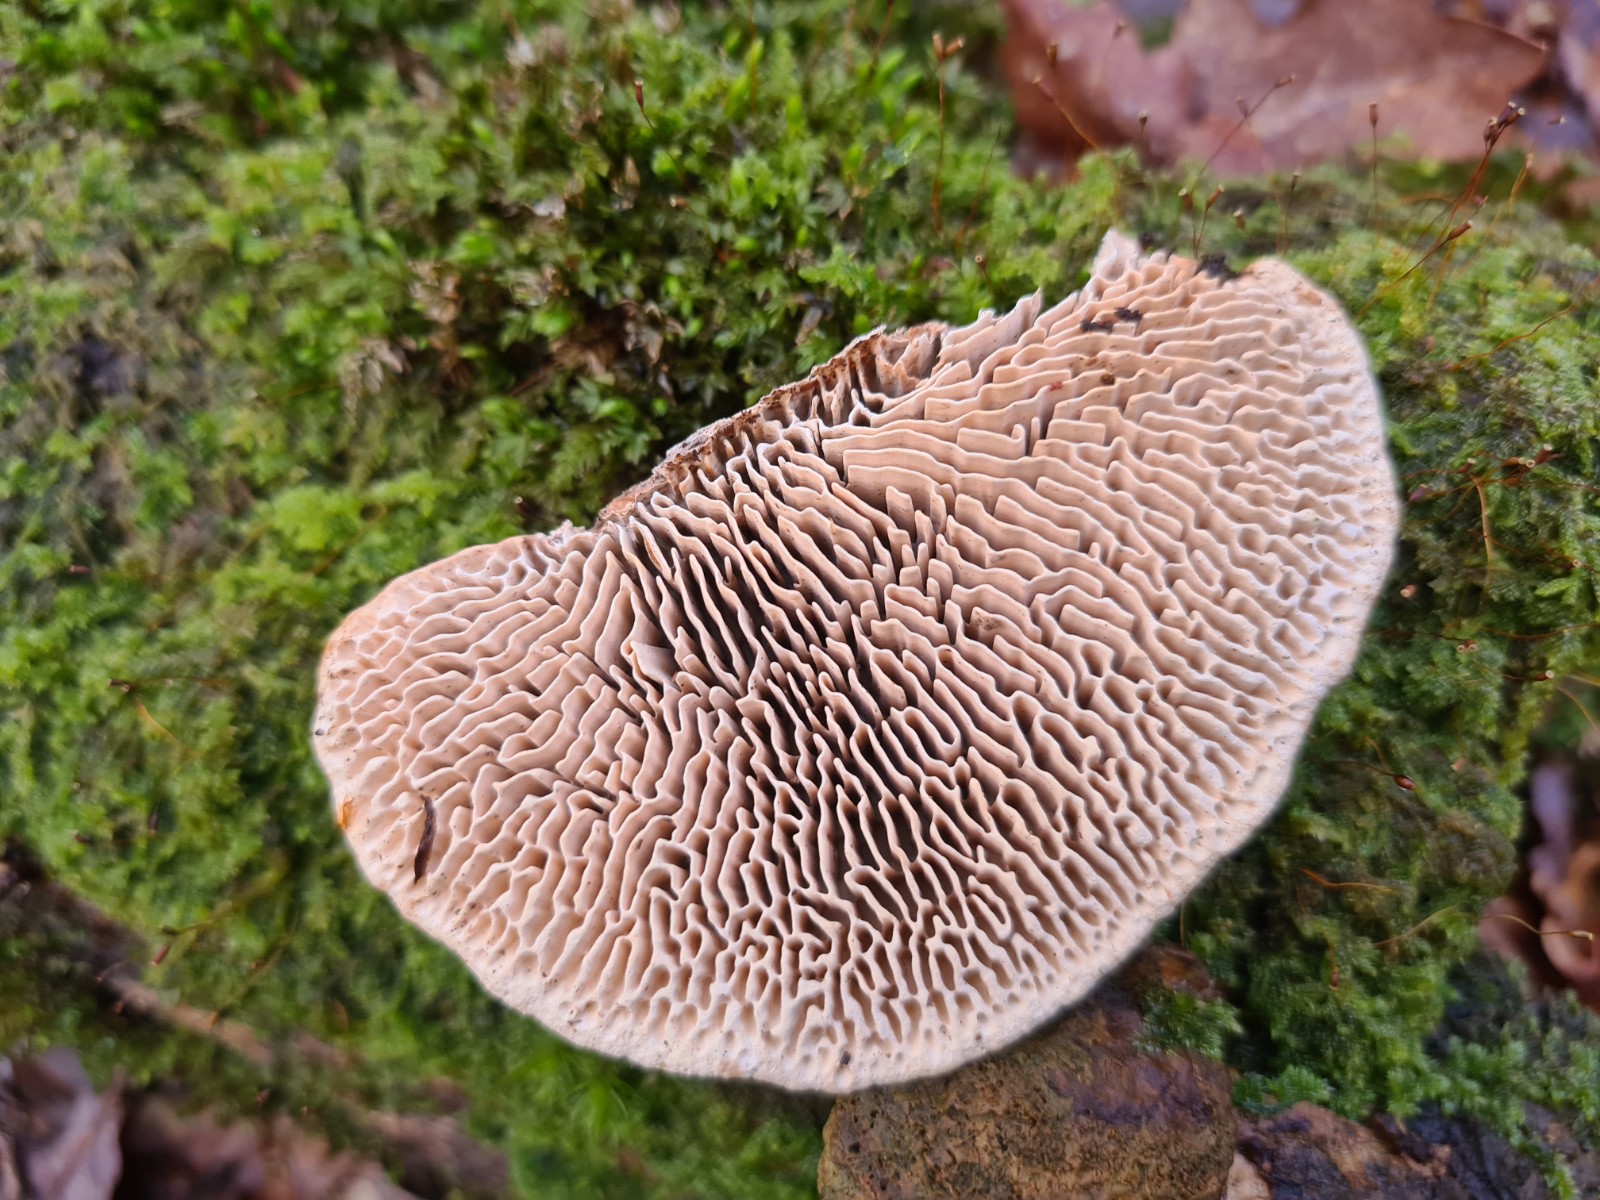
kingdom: Fungi
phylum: Basidiomycota
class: Agaricomycetes
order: Polyporales
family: Fomitopsidaceae
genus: Daedalea
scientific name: Daedalea quercina
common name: ege-labyrintsvamp
